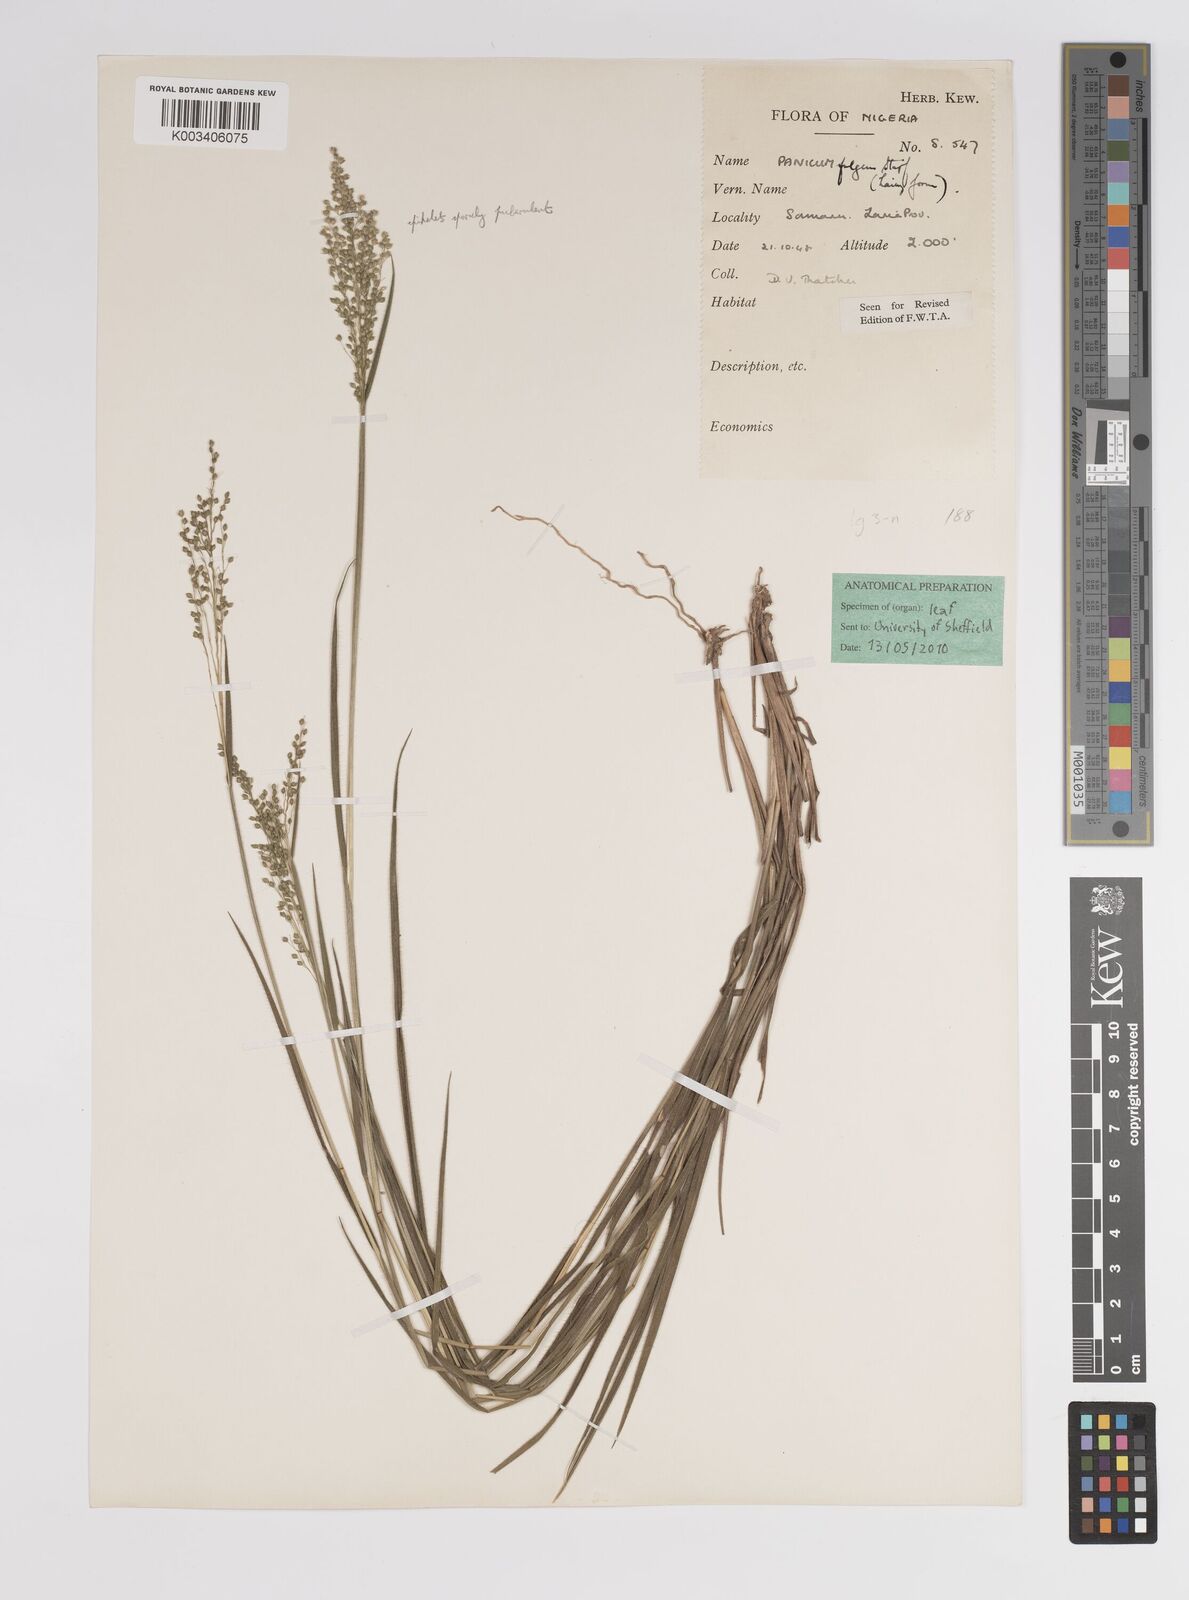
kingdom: Plantae
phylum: Tracheophyta
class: Liliopsida
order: Poales
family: Poaceae
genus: Panicum
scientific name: Panicum eickii
